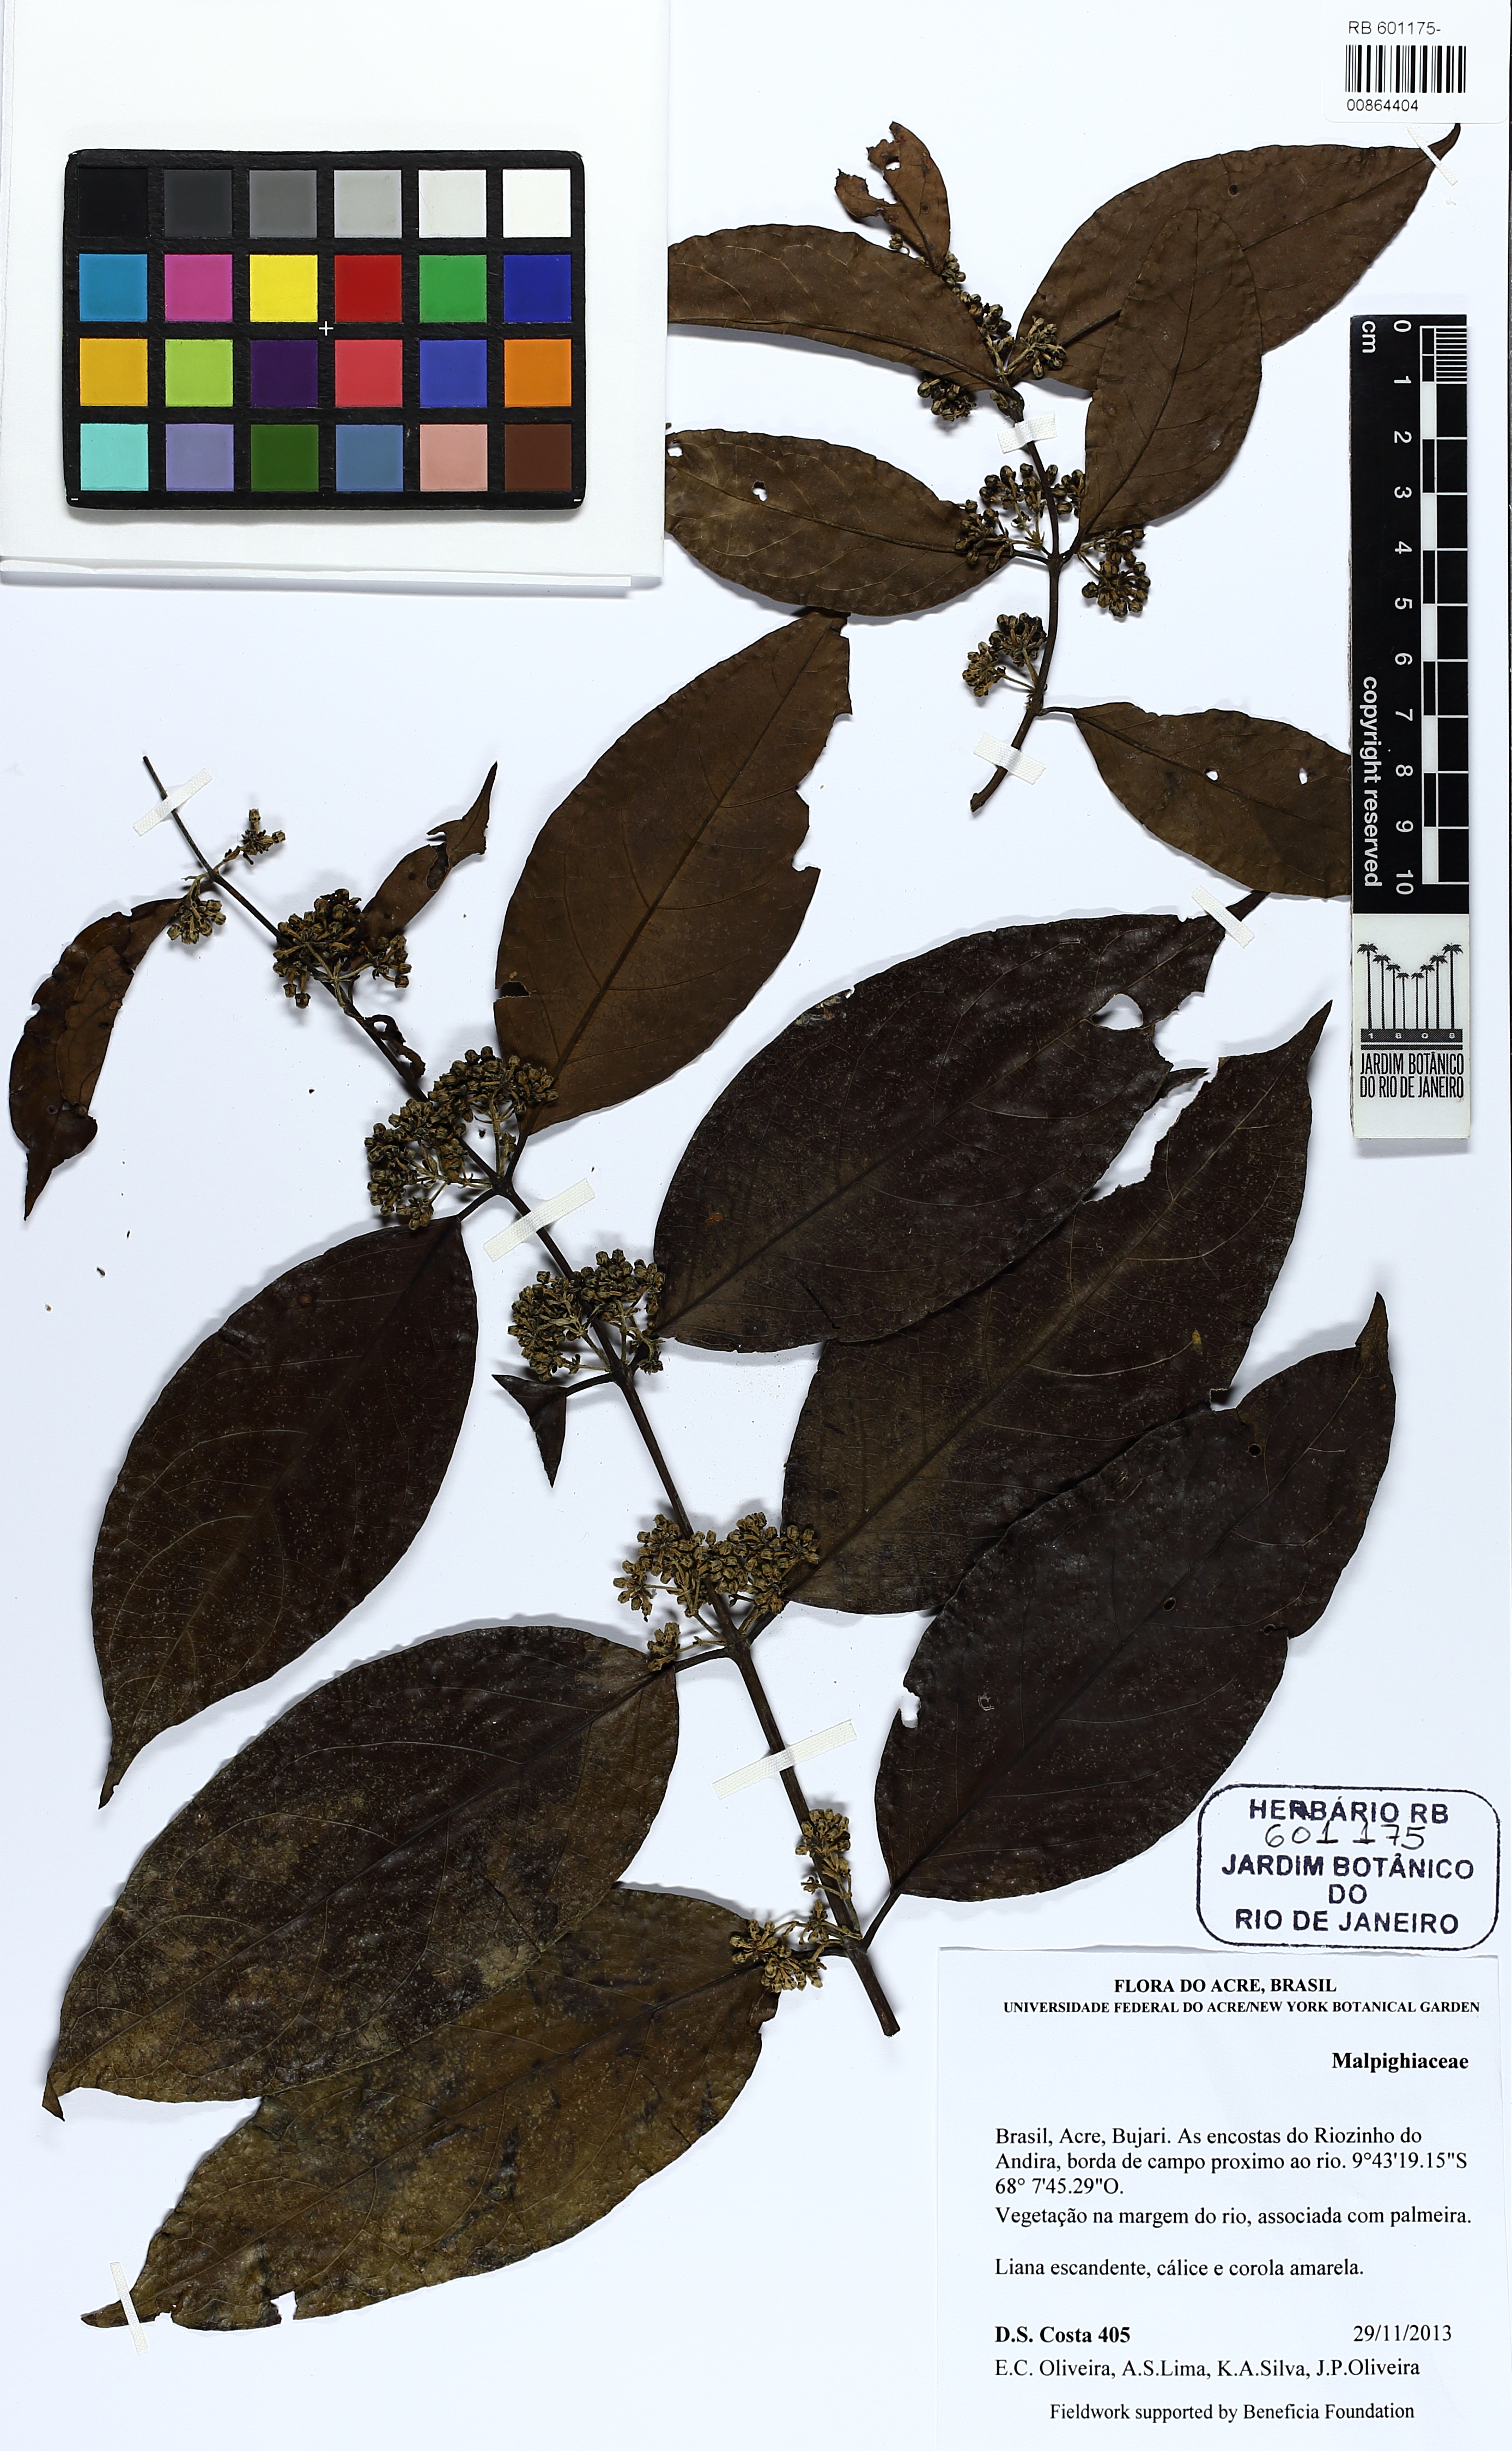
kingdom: Plantae
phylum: Tracheophyta
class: Magnoliopsida
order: Malpighiales
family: Malpighiaceae
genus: Malpighiodes
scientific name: Malpighiodes
